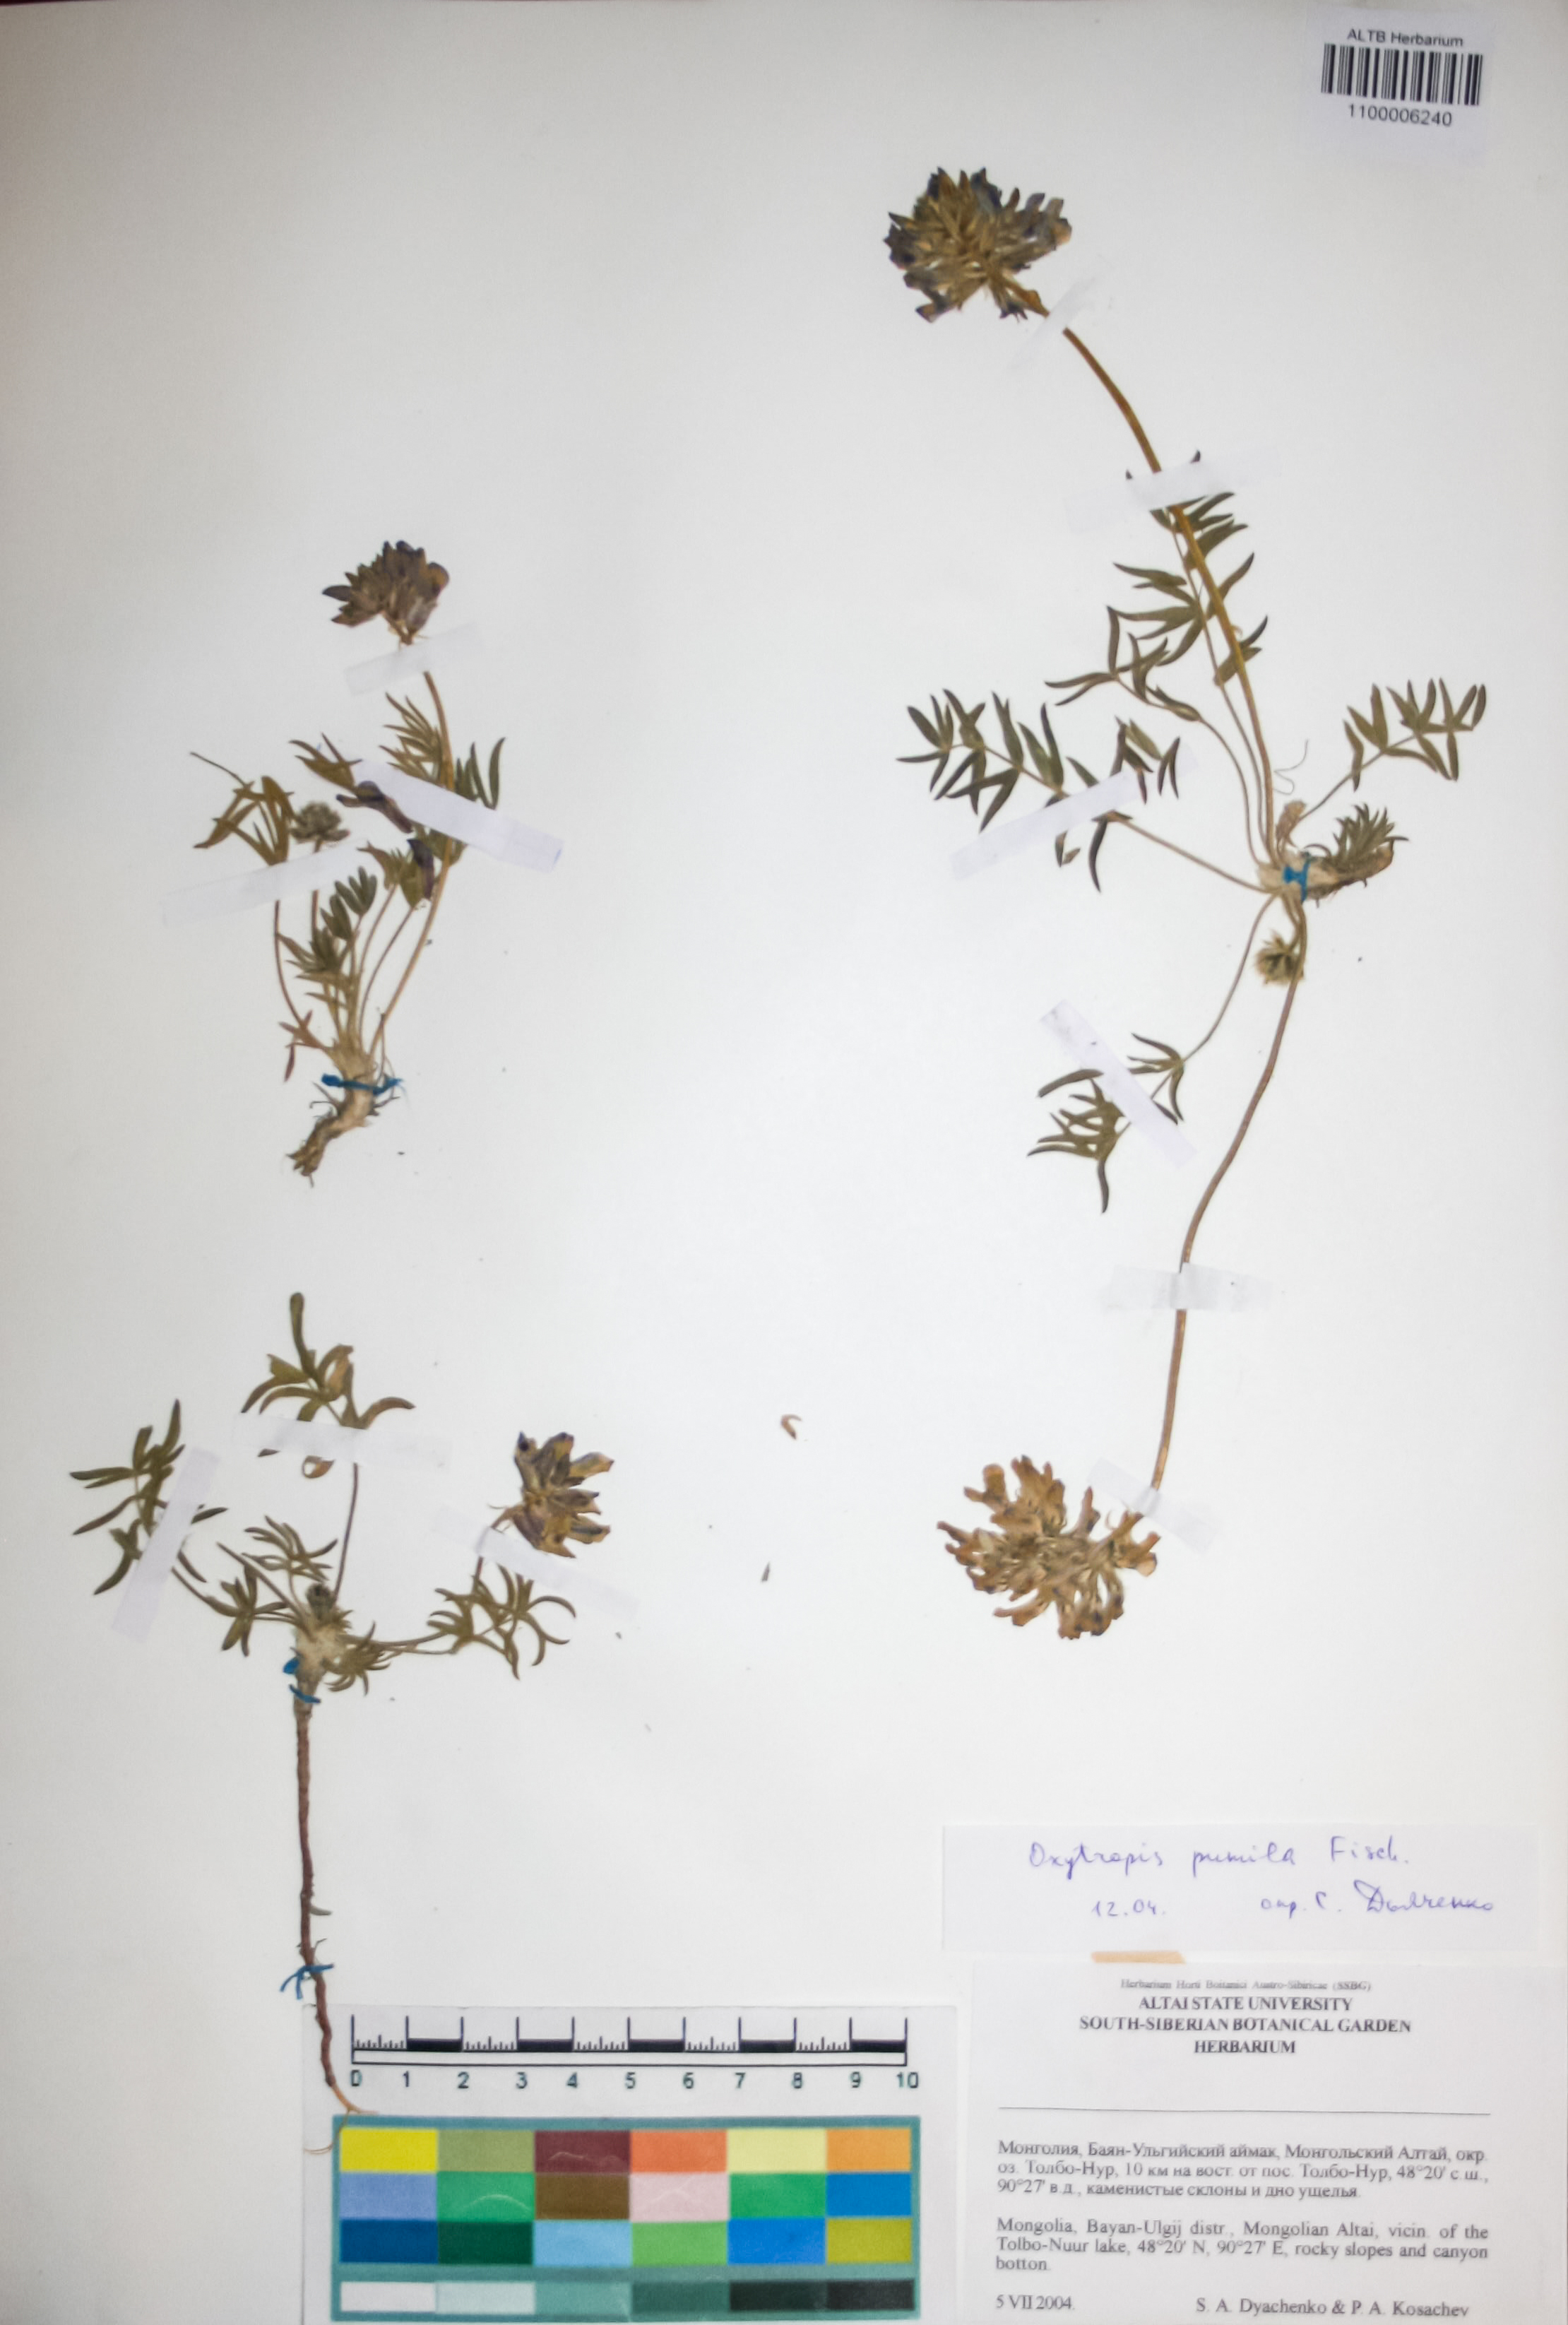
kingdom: Plantae
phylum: Tracheophyta
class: Magnoliopsida
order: Fabales
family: Fabaceae
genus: Oxytropis
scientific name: Oxytropis pumila
